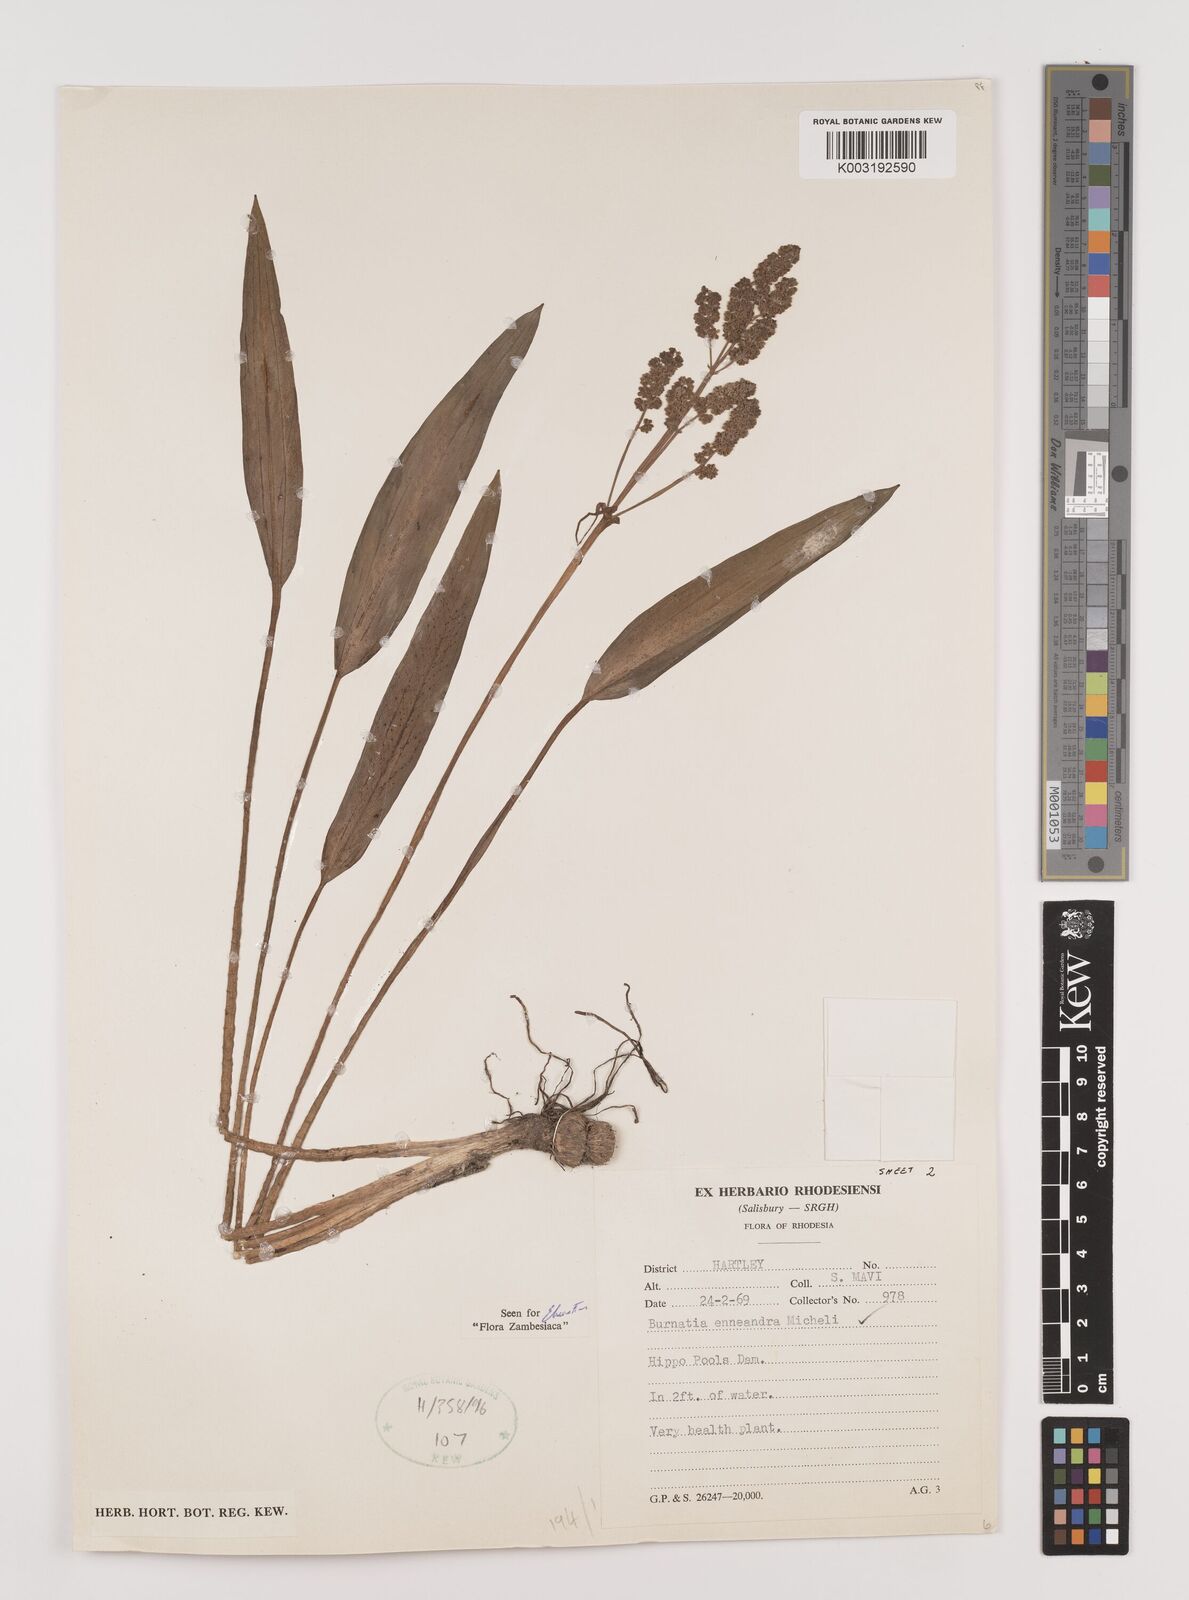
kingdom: Plantae
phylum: Tracheophyta
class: Liliopsida
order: Alismatales
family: Alismataceae
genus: Burnatia
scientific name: Burnatia enneandra
